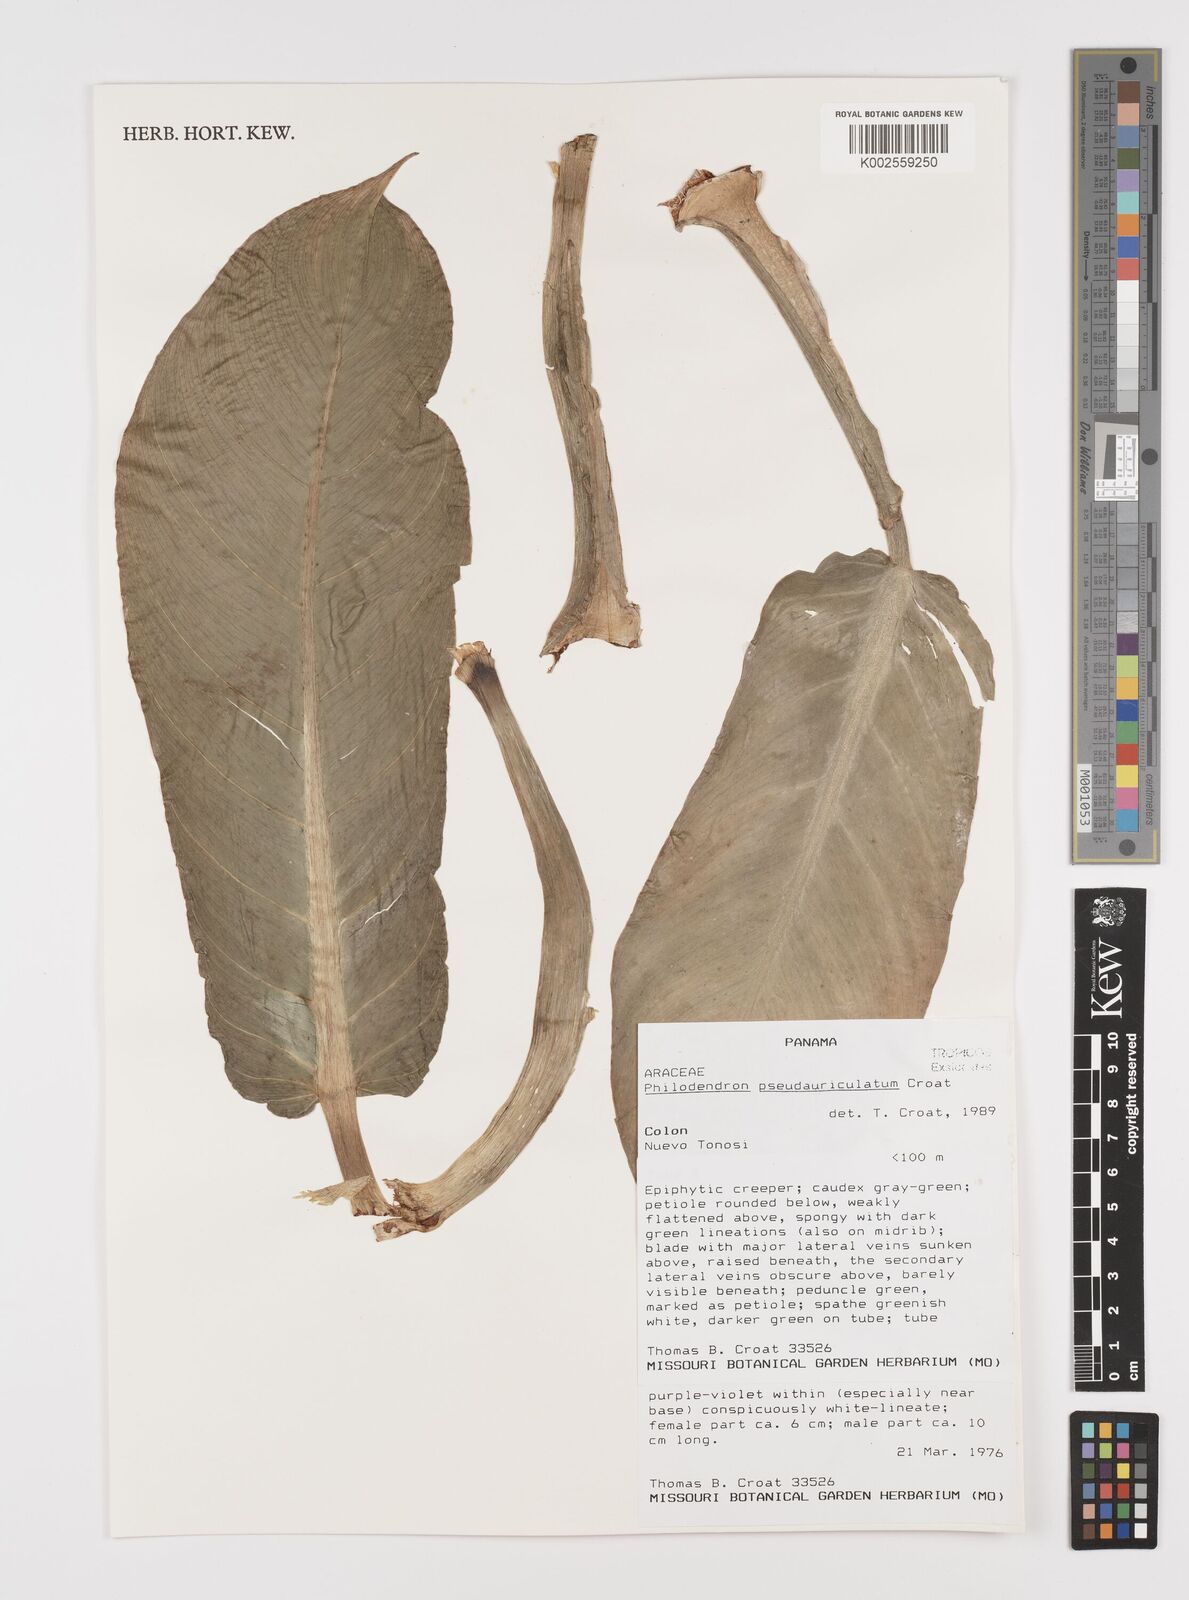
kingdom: Plantae
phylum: Tracheophyta
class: Liliopsida
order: Alismatales
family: Araceae
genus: Philodendron
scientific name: Philodendron pseudauriculatum
